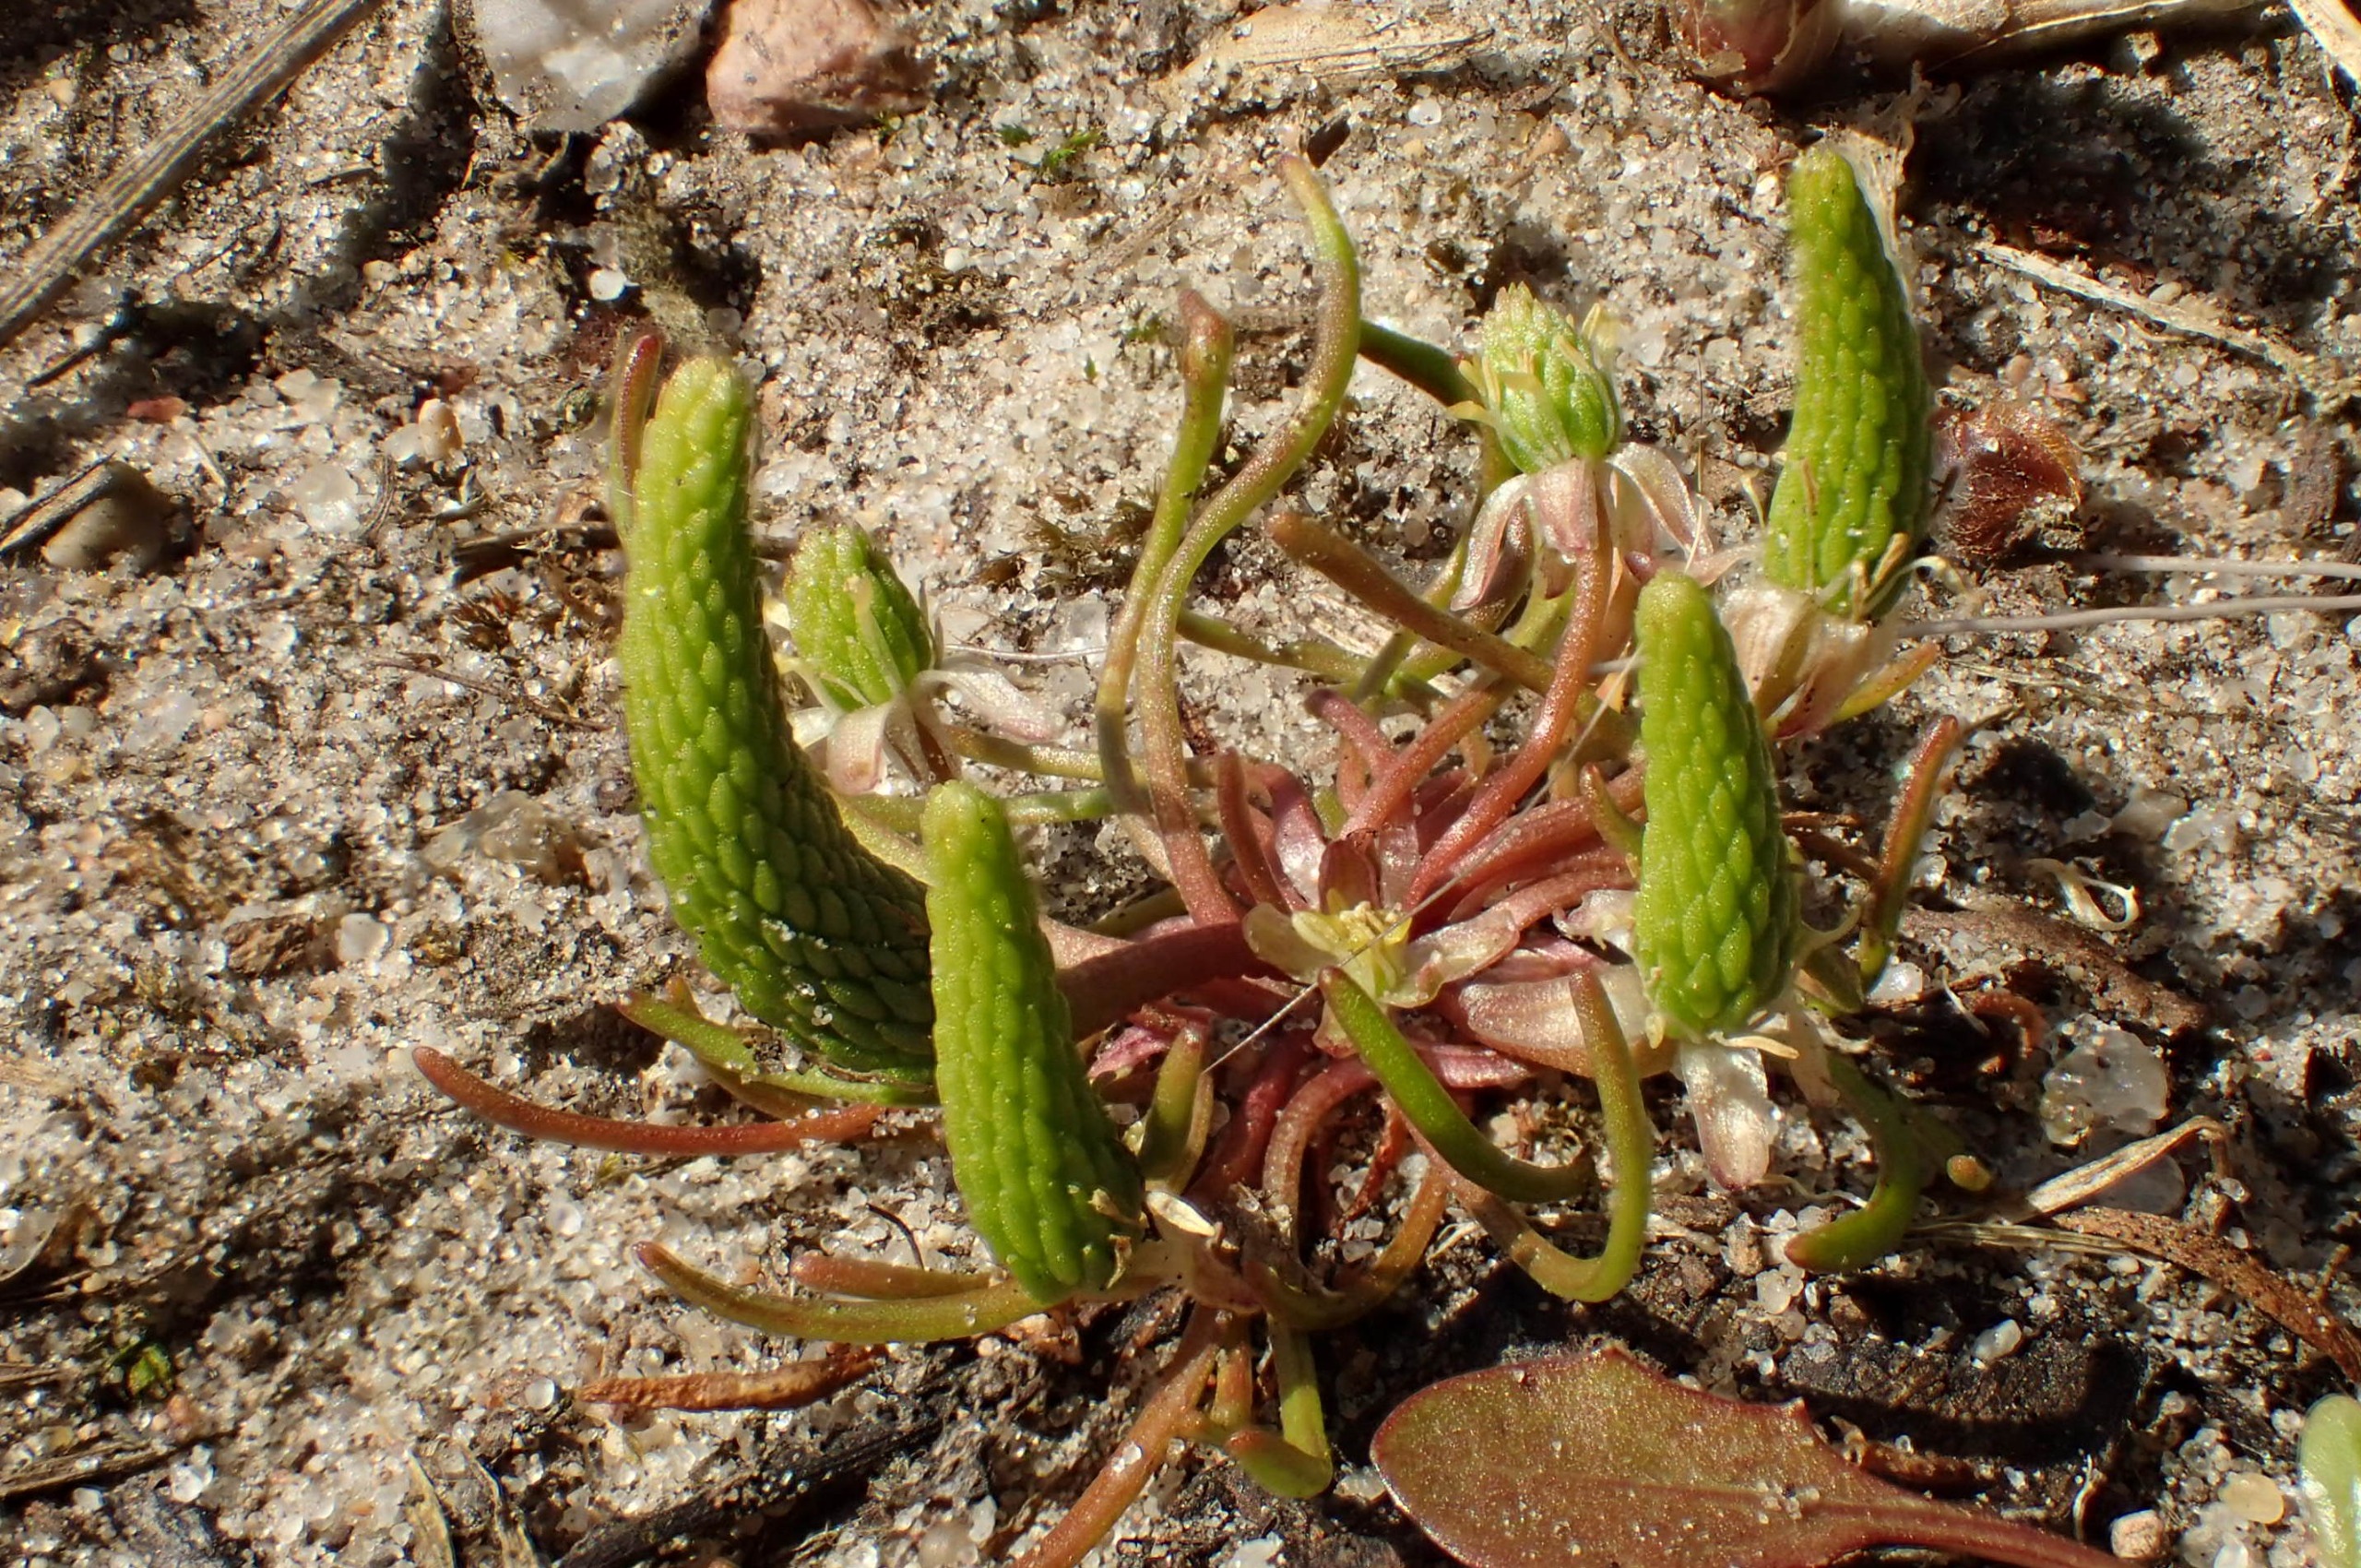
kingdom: Plantae
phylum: Tracheophyta
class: Magnoliopsida
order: Ranunculales
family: Ranunculaceae
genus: Myosurus
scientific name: Myosurus minimus
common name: Musehale
